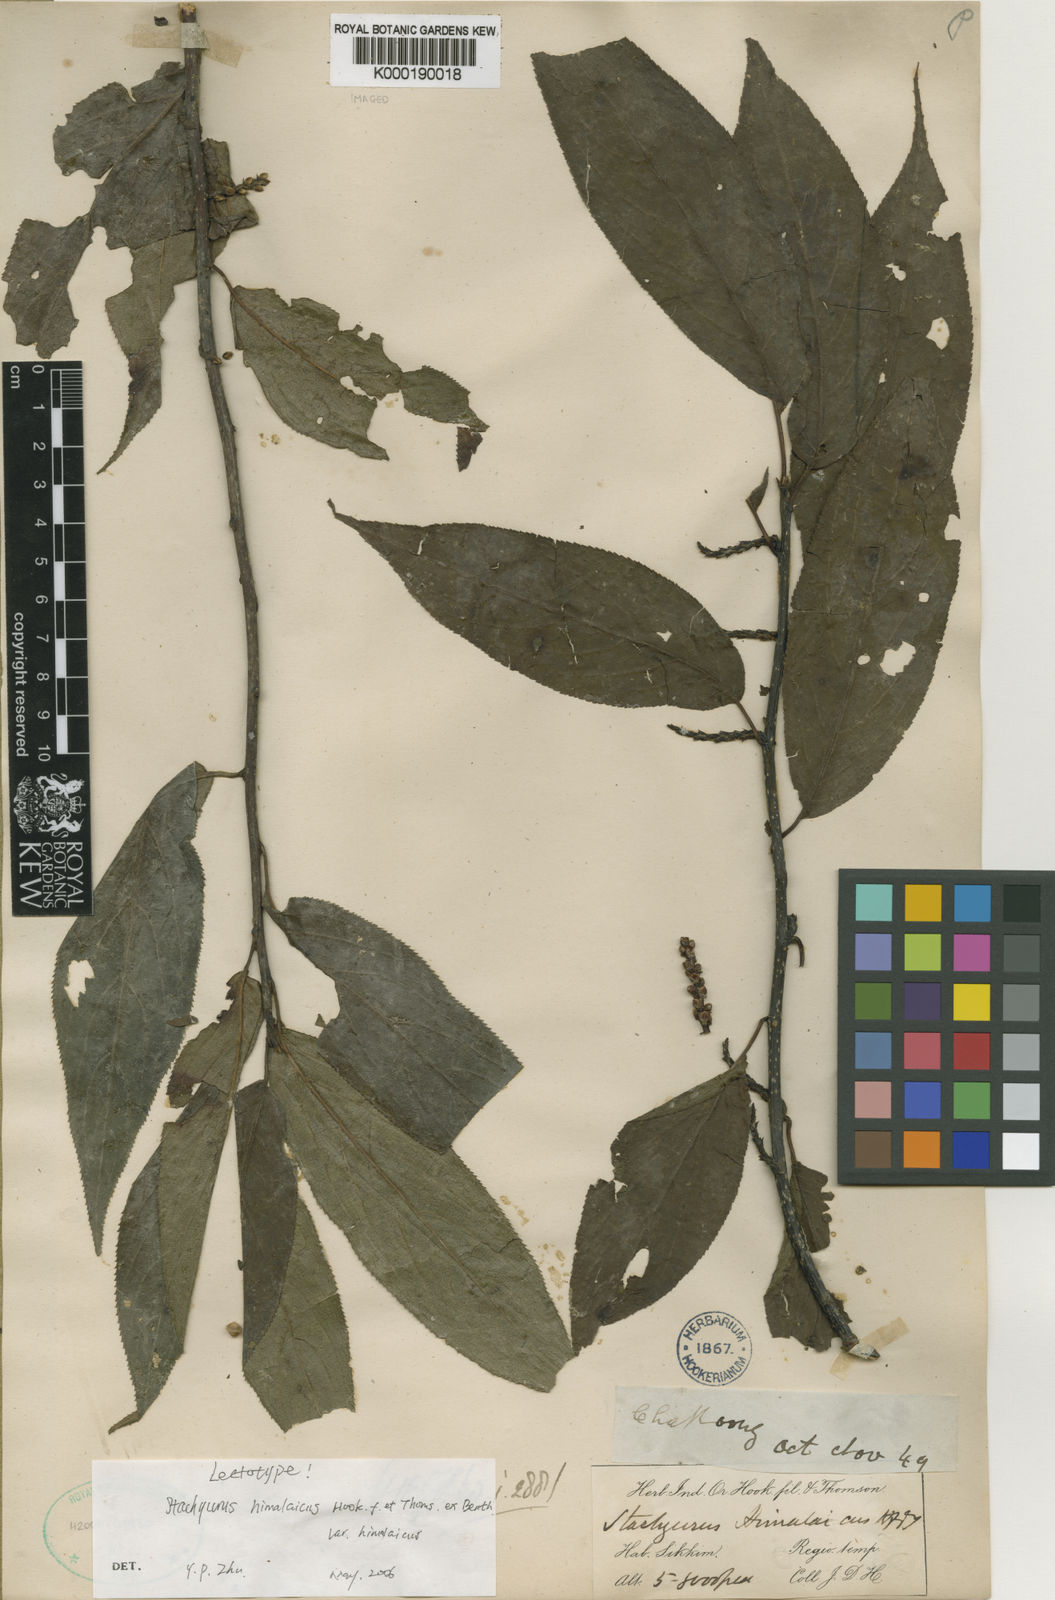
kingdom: Plantae
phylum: Tracheophyta
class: Magnoliopsida
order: Crossosomatales
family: Stachyuraceae
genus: Stachyurus
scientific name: Stachyurus himalaicus
